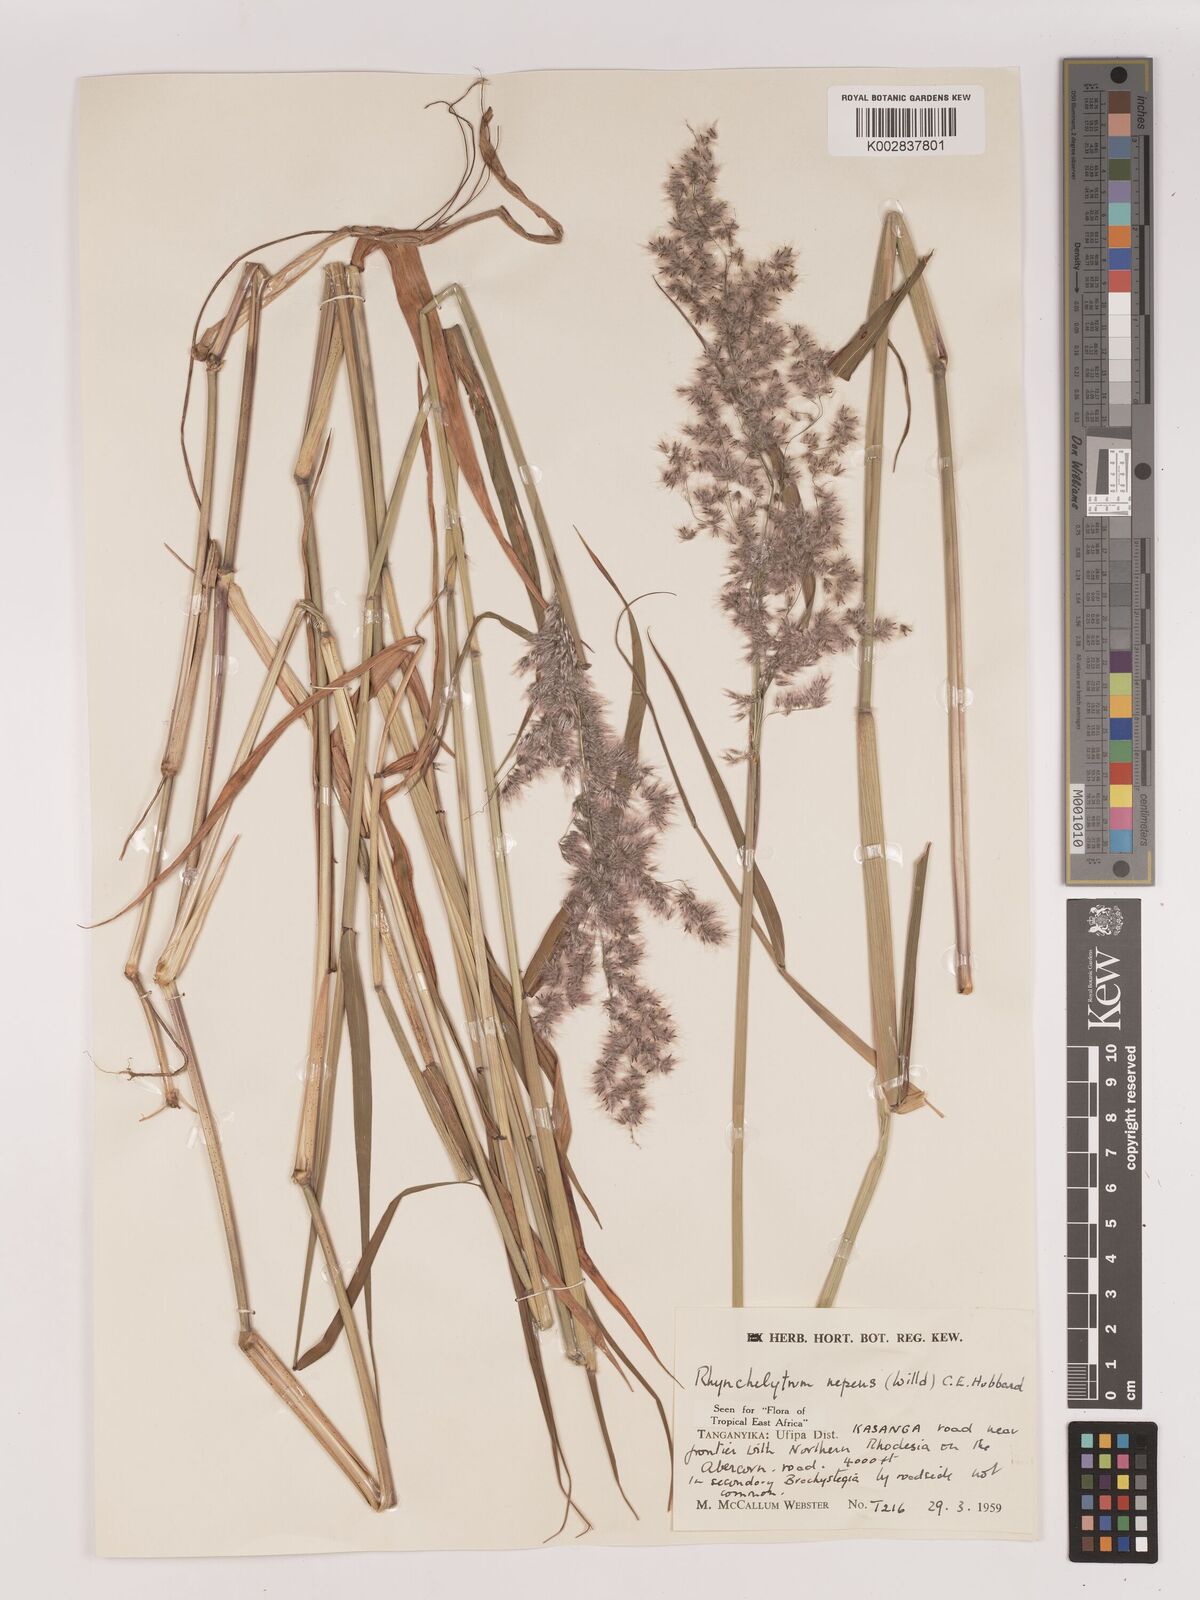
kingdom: Plantae
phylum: Tracheophyta
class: Liliopsida
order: Poales
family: Poaceae
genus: Melinis
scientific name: Melinis repens
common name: Rose natal grass
